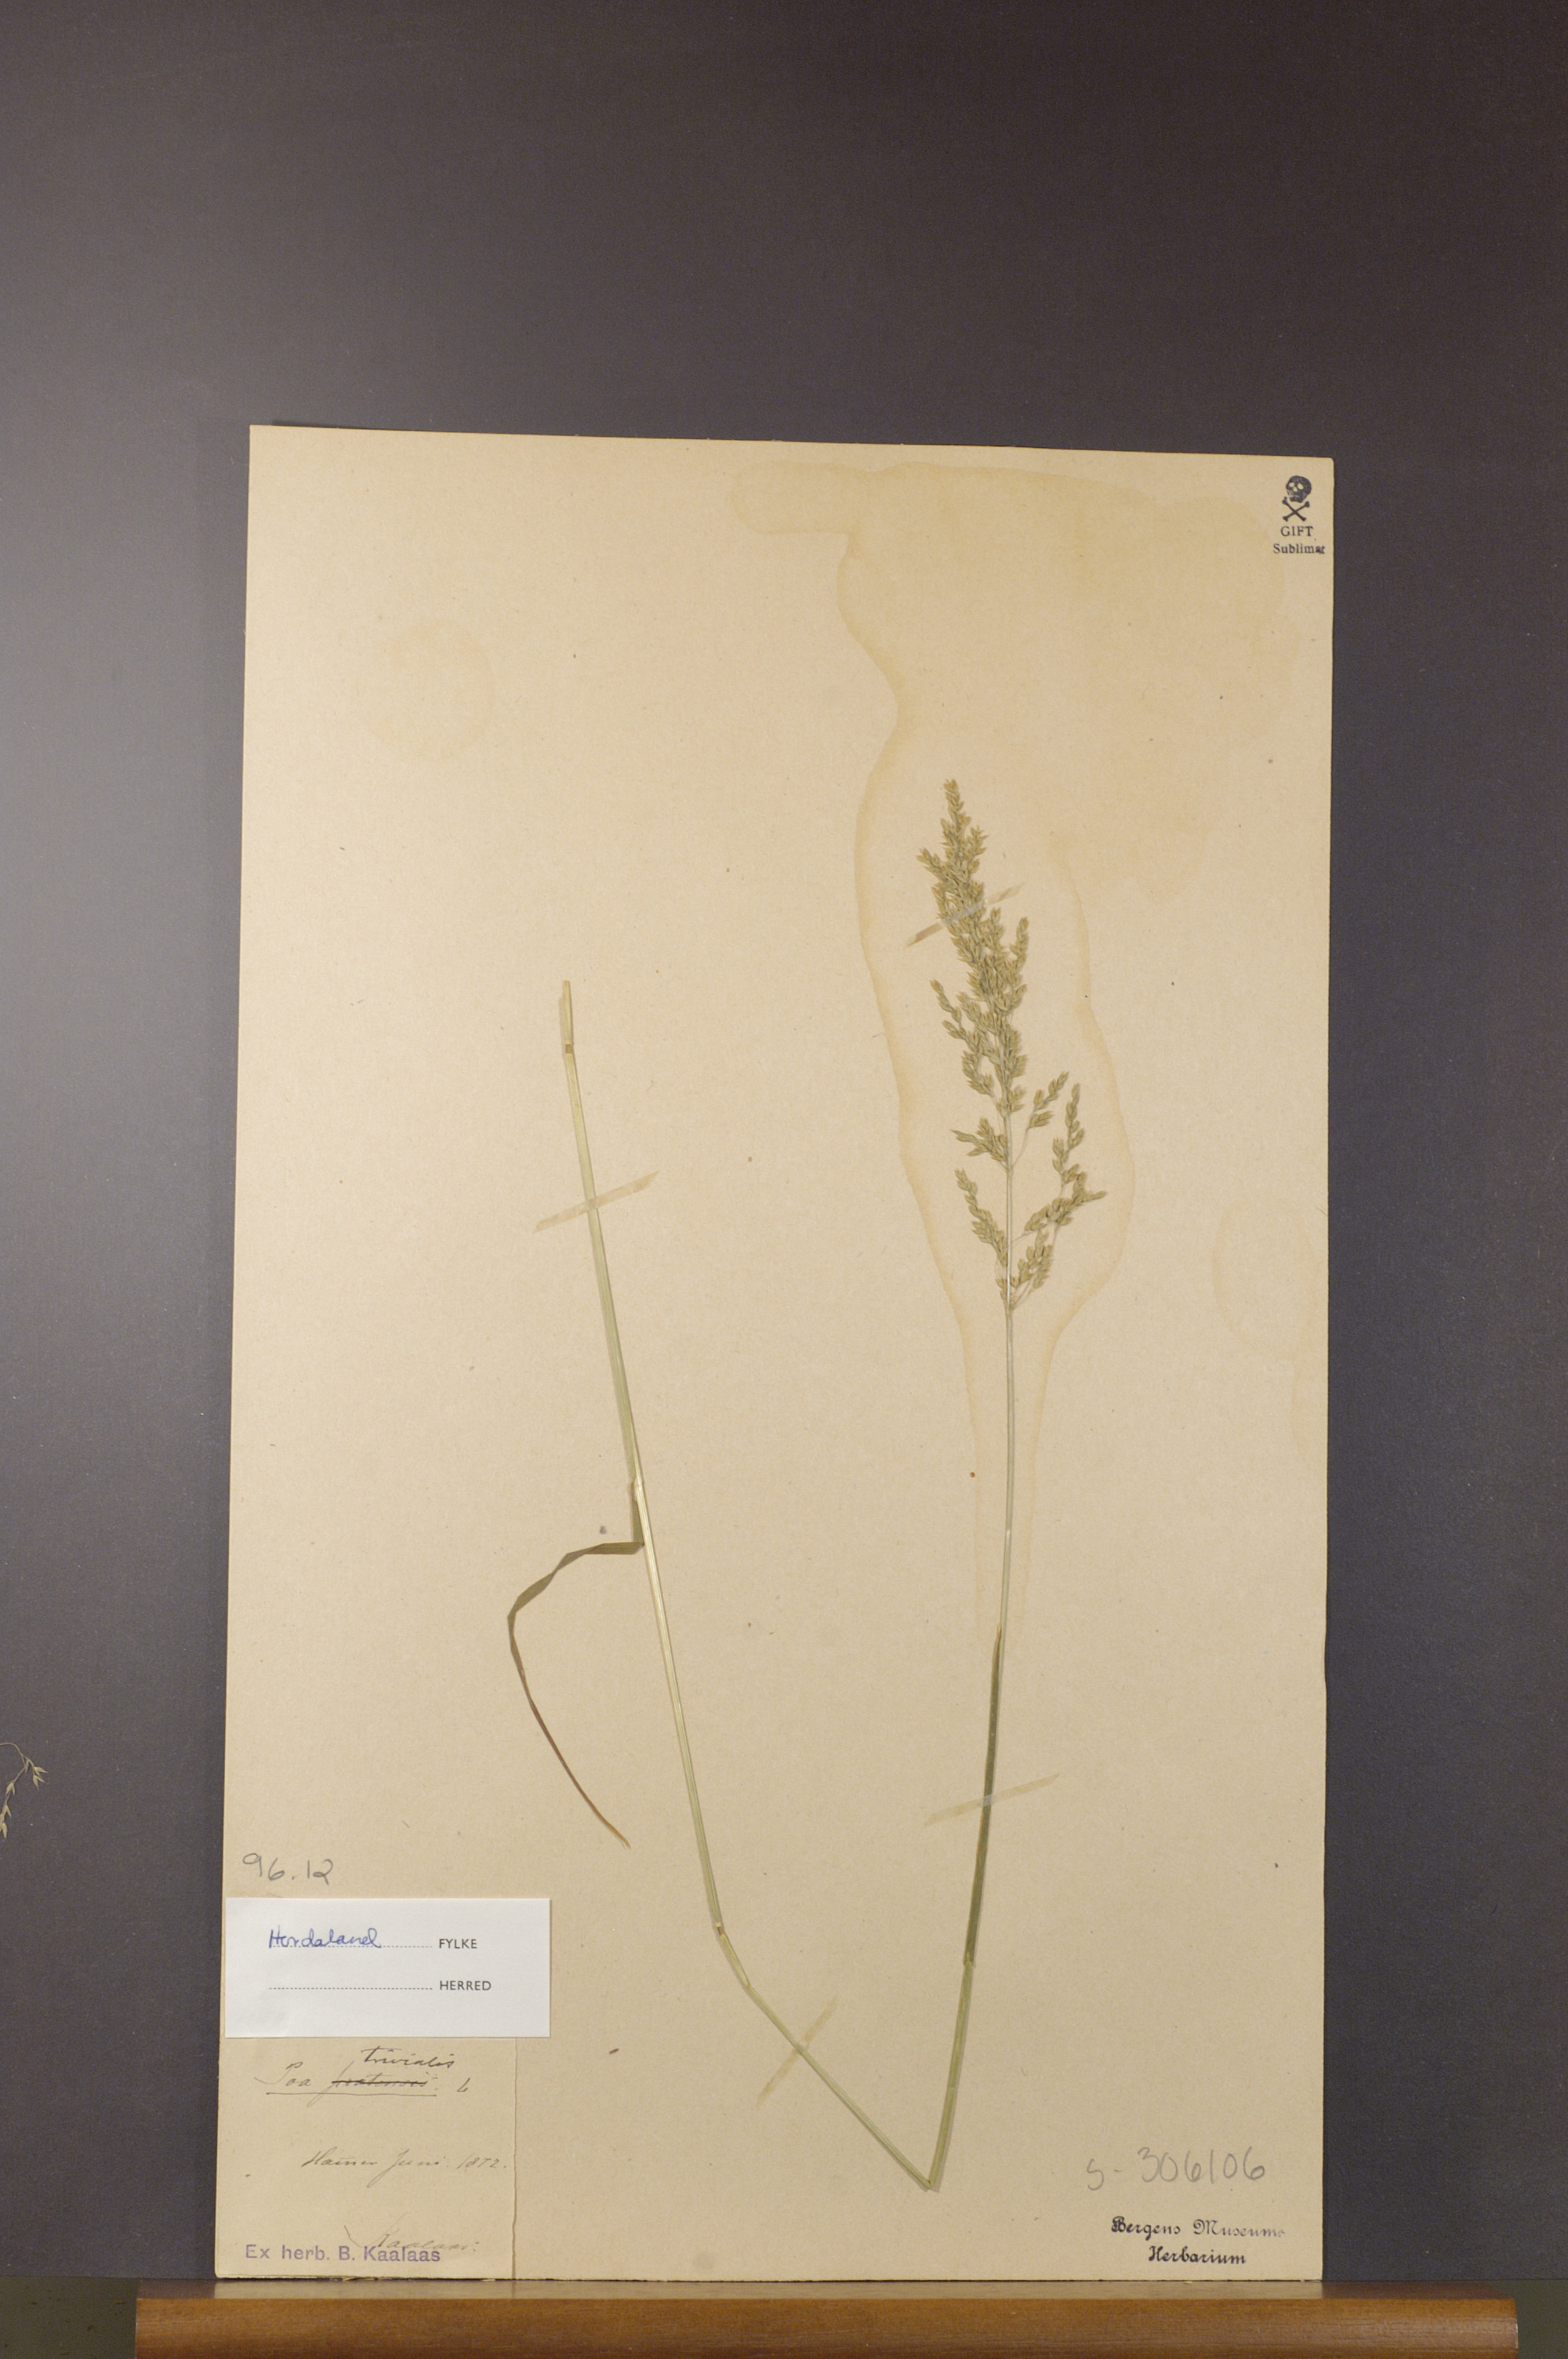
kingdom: Plantae
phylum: Tracheophyta
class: Liliopsida
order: Poales
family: Poaceae
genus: Poa
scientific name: Poa trivialis
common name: Rough bluegrass
